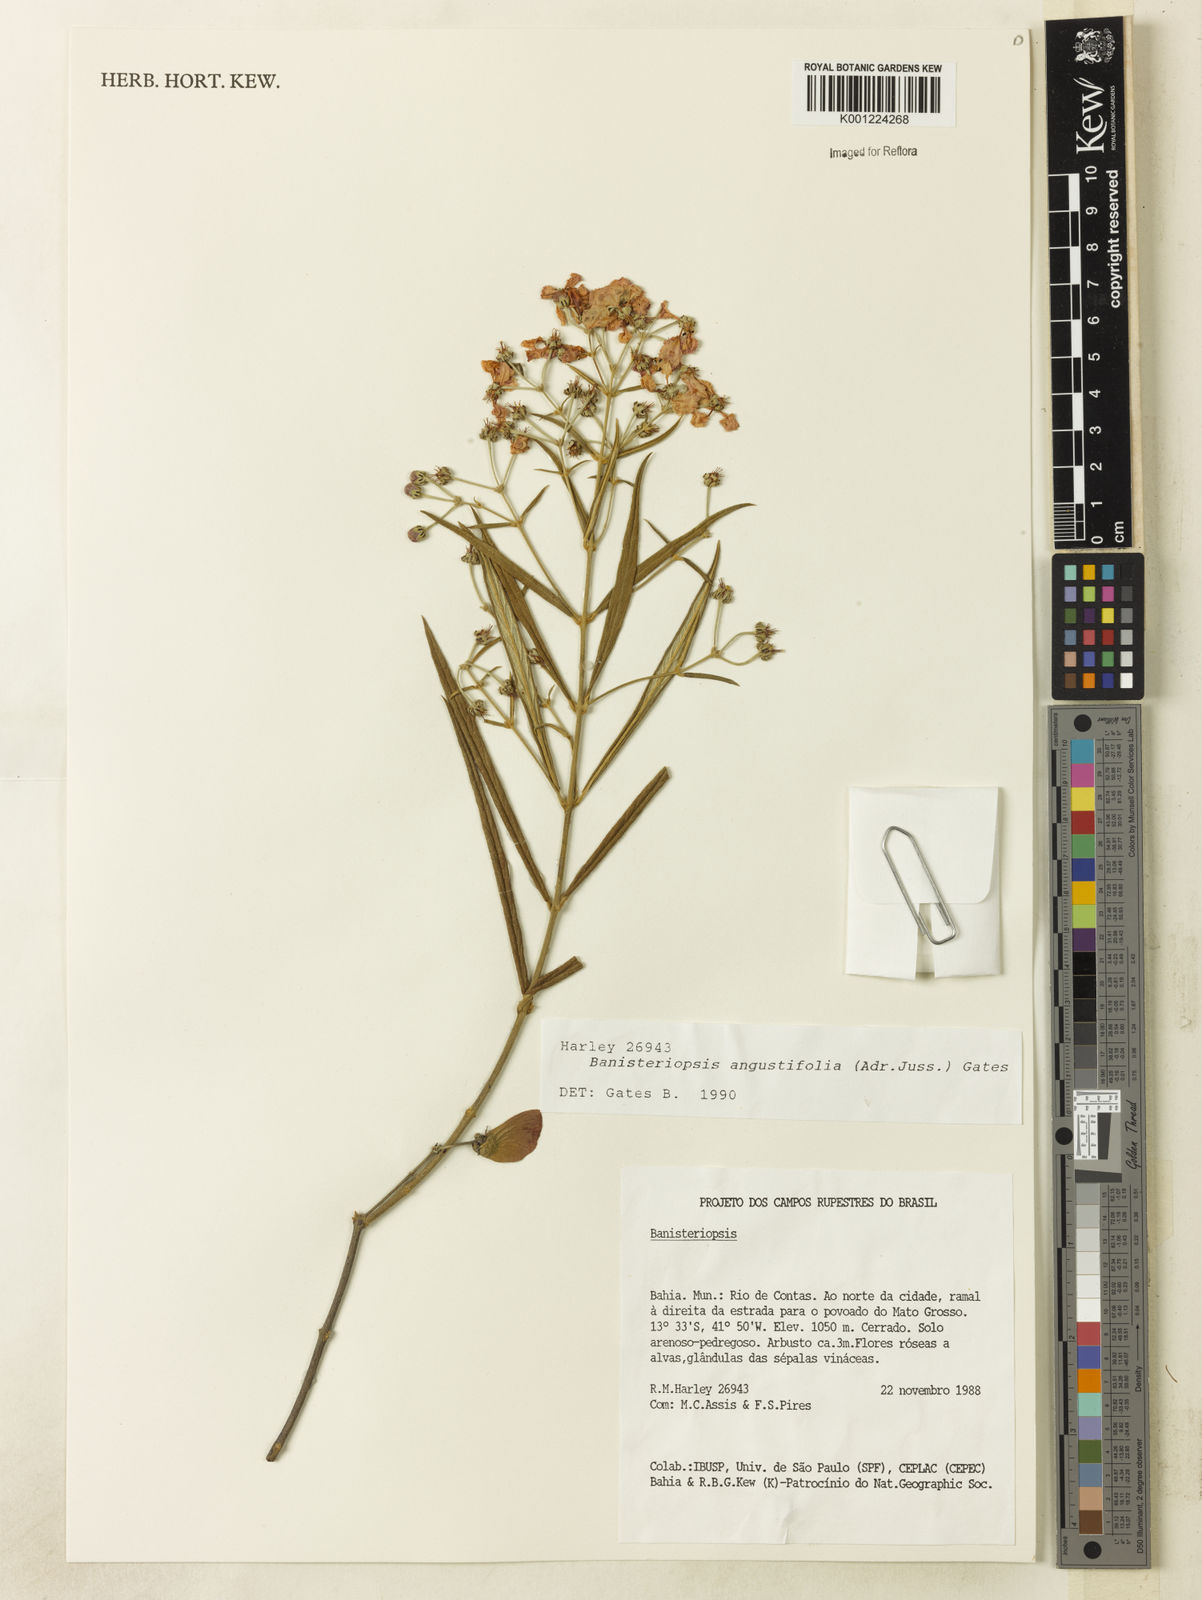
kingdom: Plantae
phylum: Tracheophyta
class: Magnoliopsida
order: Malpighiales
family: Malpighiaceae
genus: Banisteriopsis
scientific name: Banisteriopsis angustifolia
